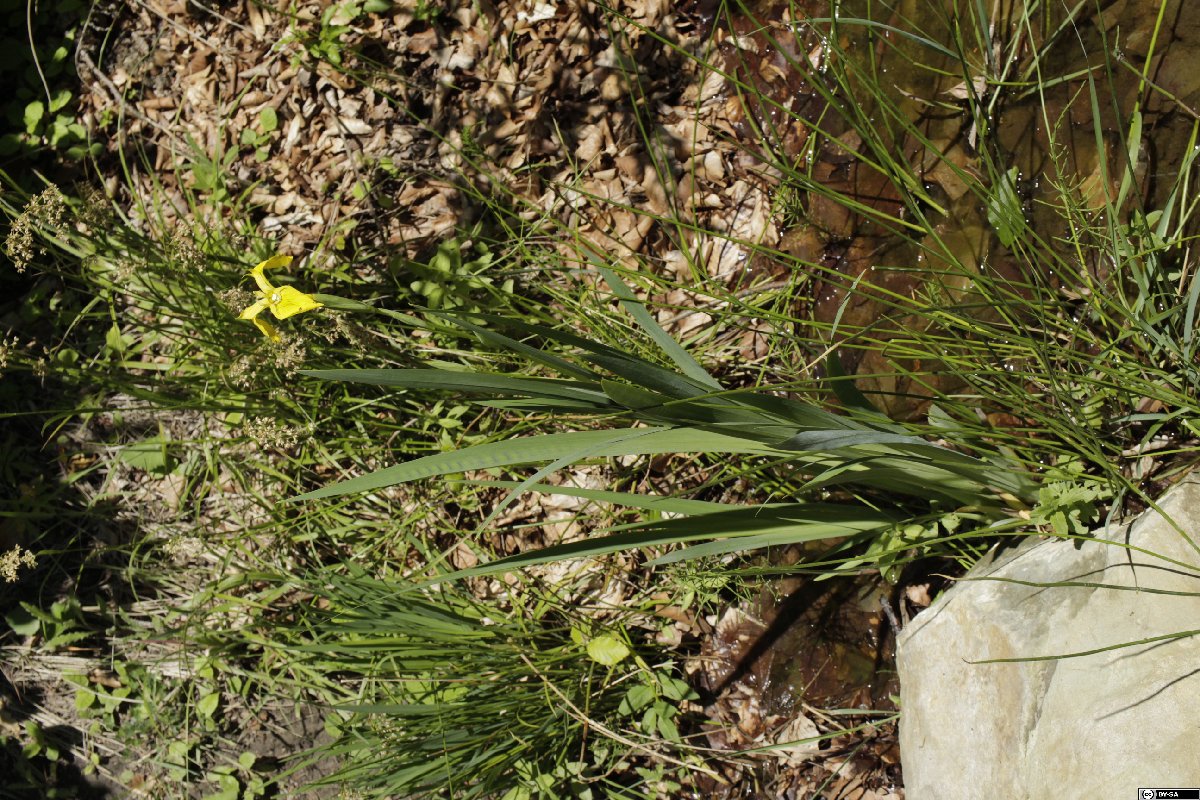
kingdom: Plantae
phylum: Tracheophyta
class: Magnoliopsida
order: Malpighiales
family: Salicaceae
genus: Salix
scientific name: Salix caprea
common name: Goat willow
